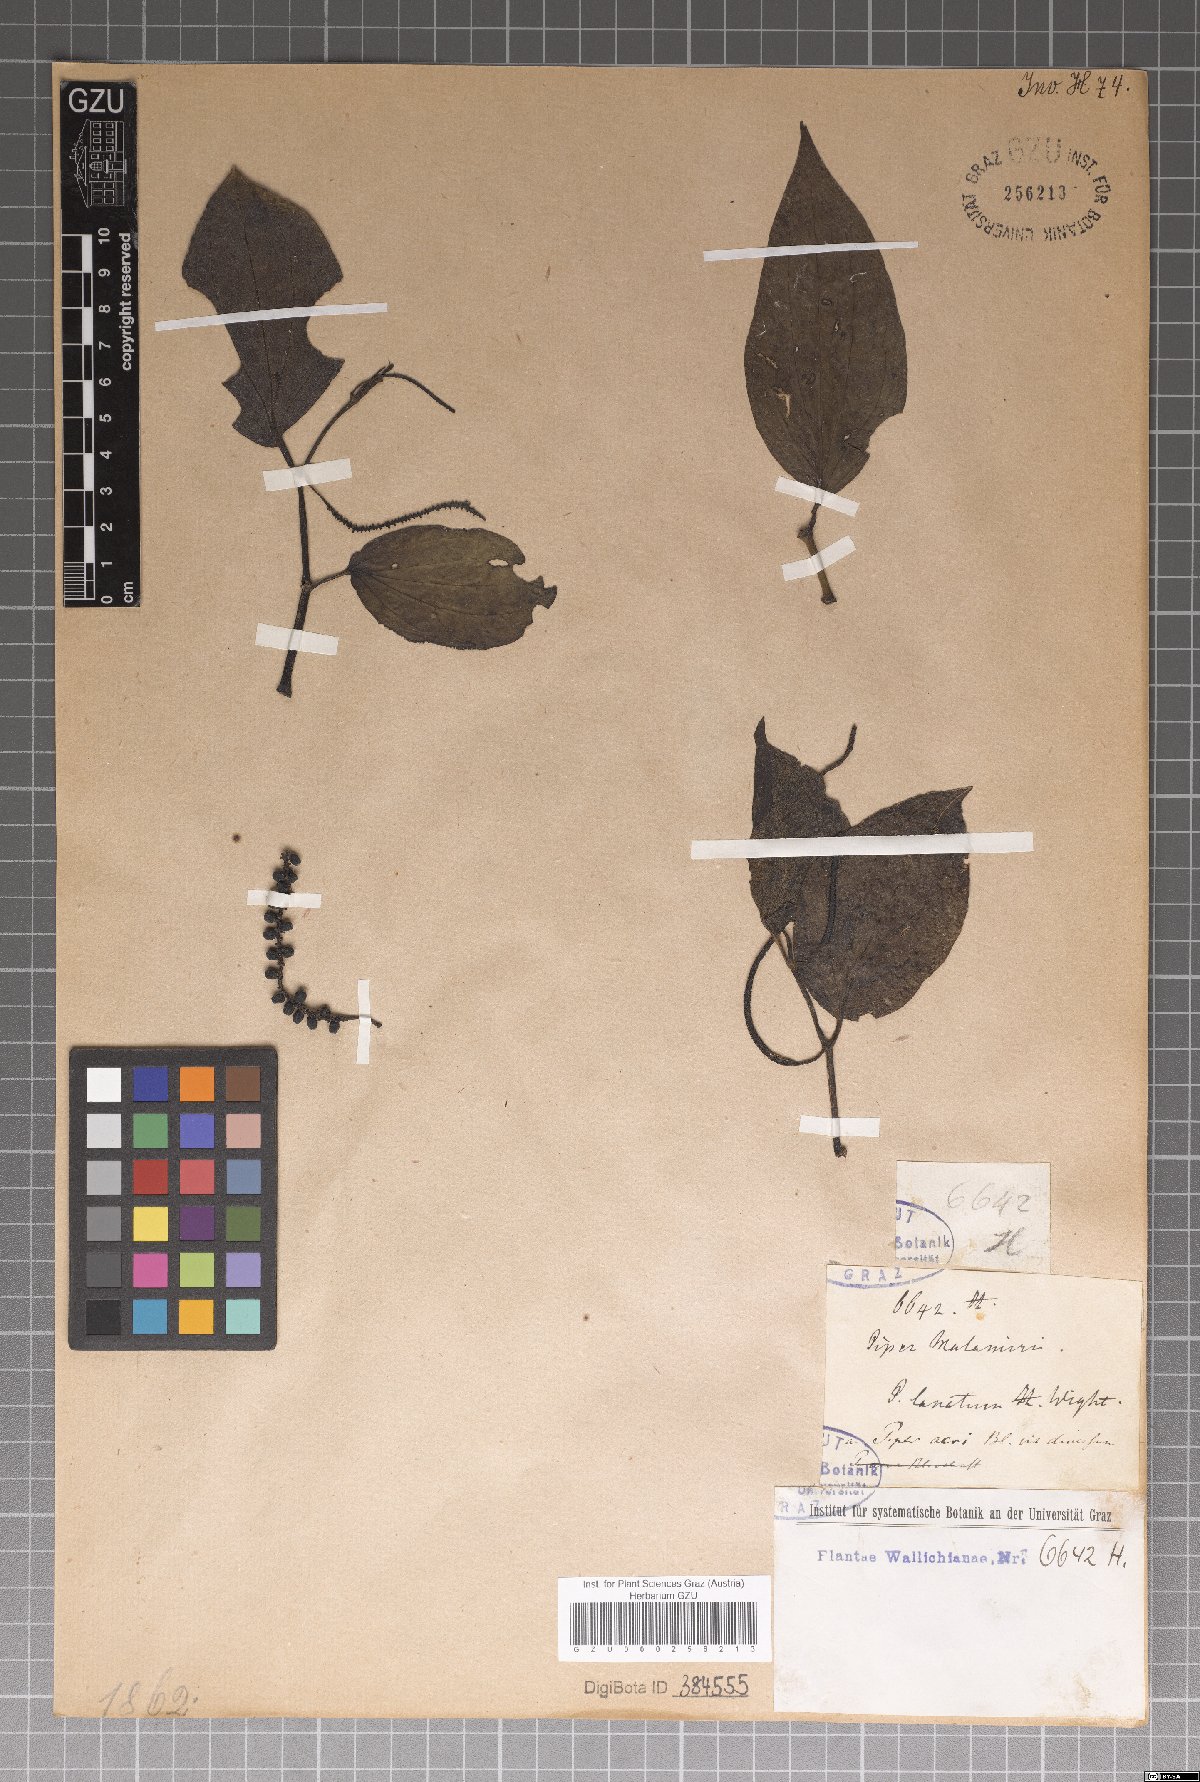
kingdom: Plantae
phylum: Tracheophyta
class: Magnoliopsida
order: Piperales
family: Piperaceae
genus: Piper
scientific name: Piper betle
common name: Betel pepper
